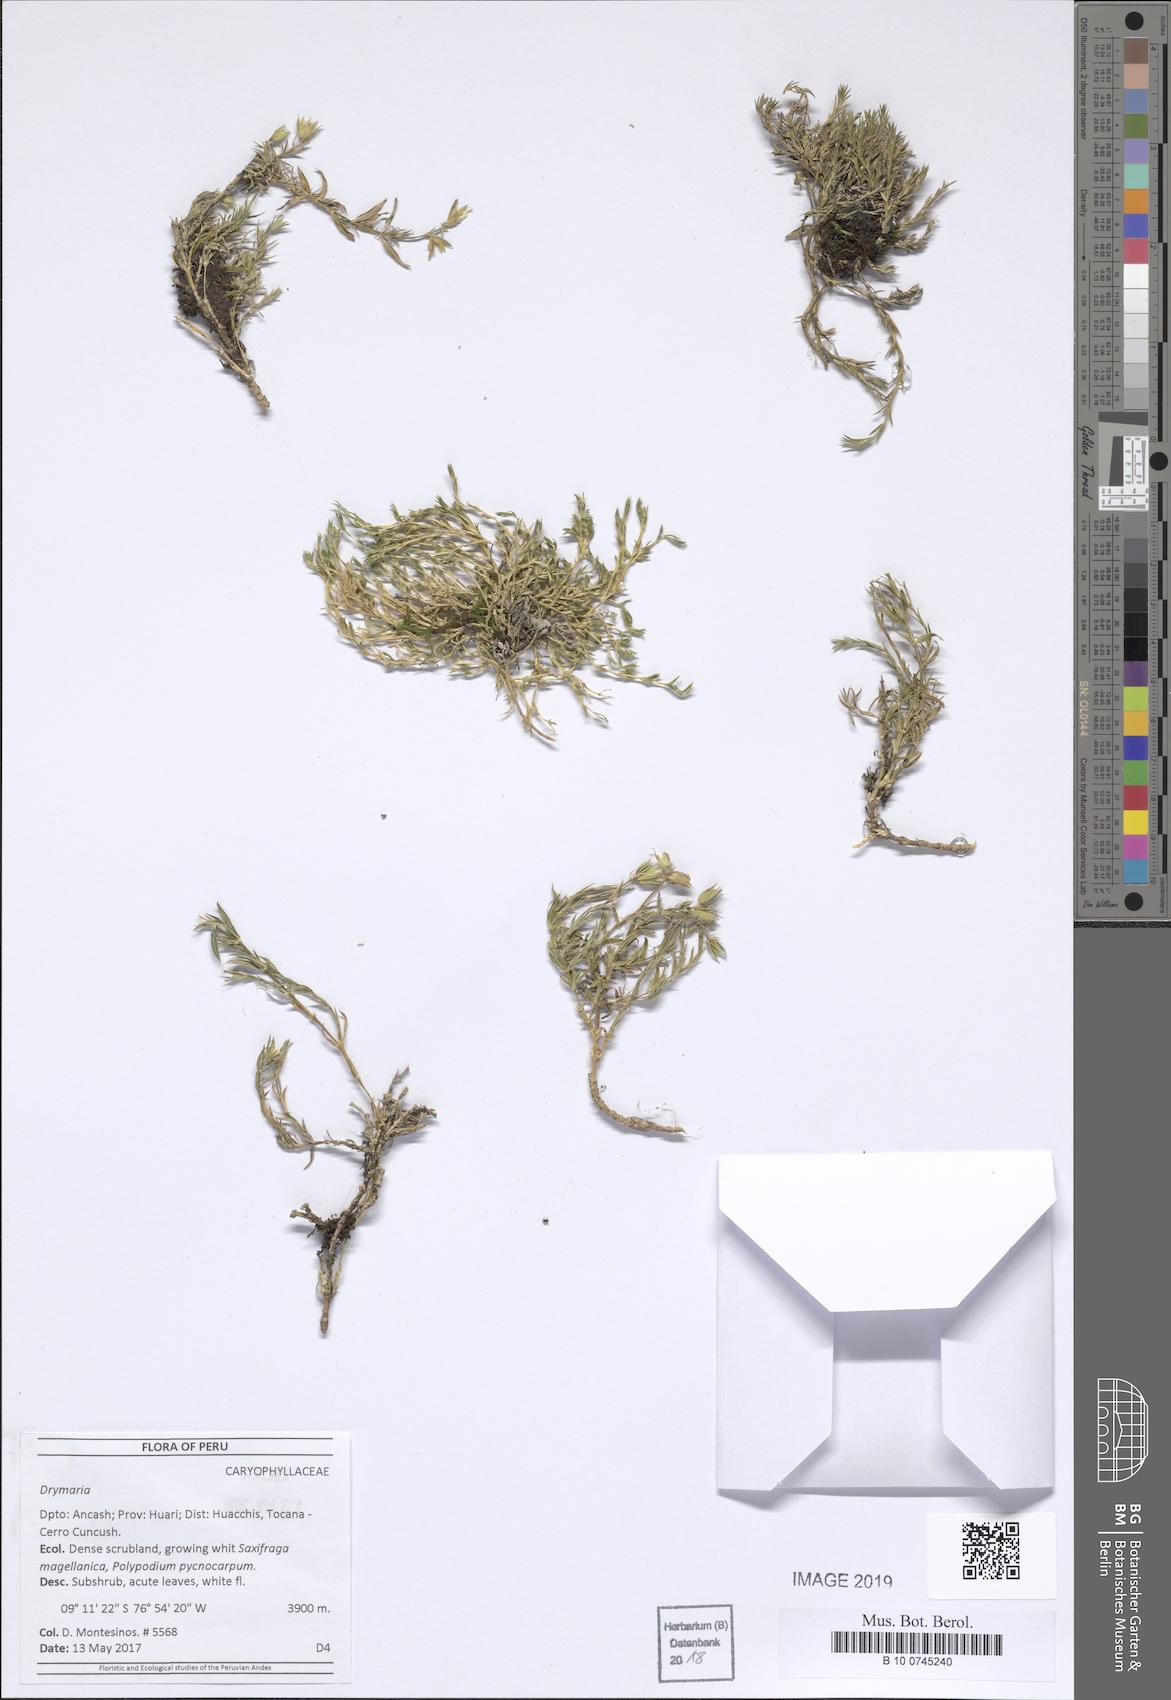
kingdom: Plantae
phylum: Tracheophyta
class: Magnoliopsida
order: Caryophyllales
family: Caryophyllaceae
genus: Drymaria
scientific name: Drymaria
